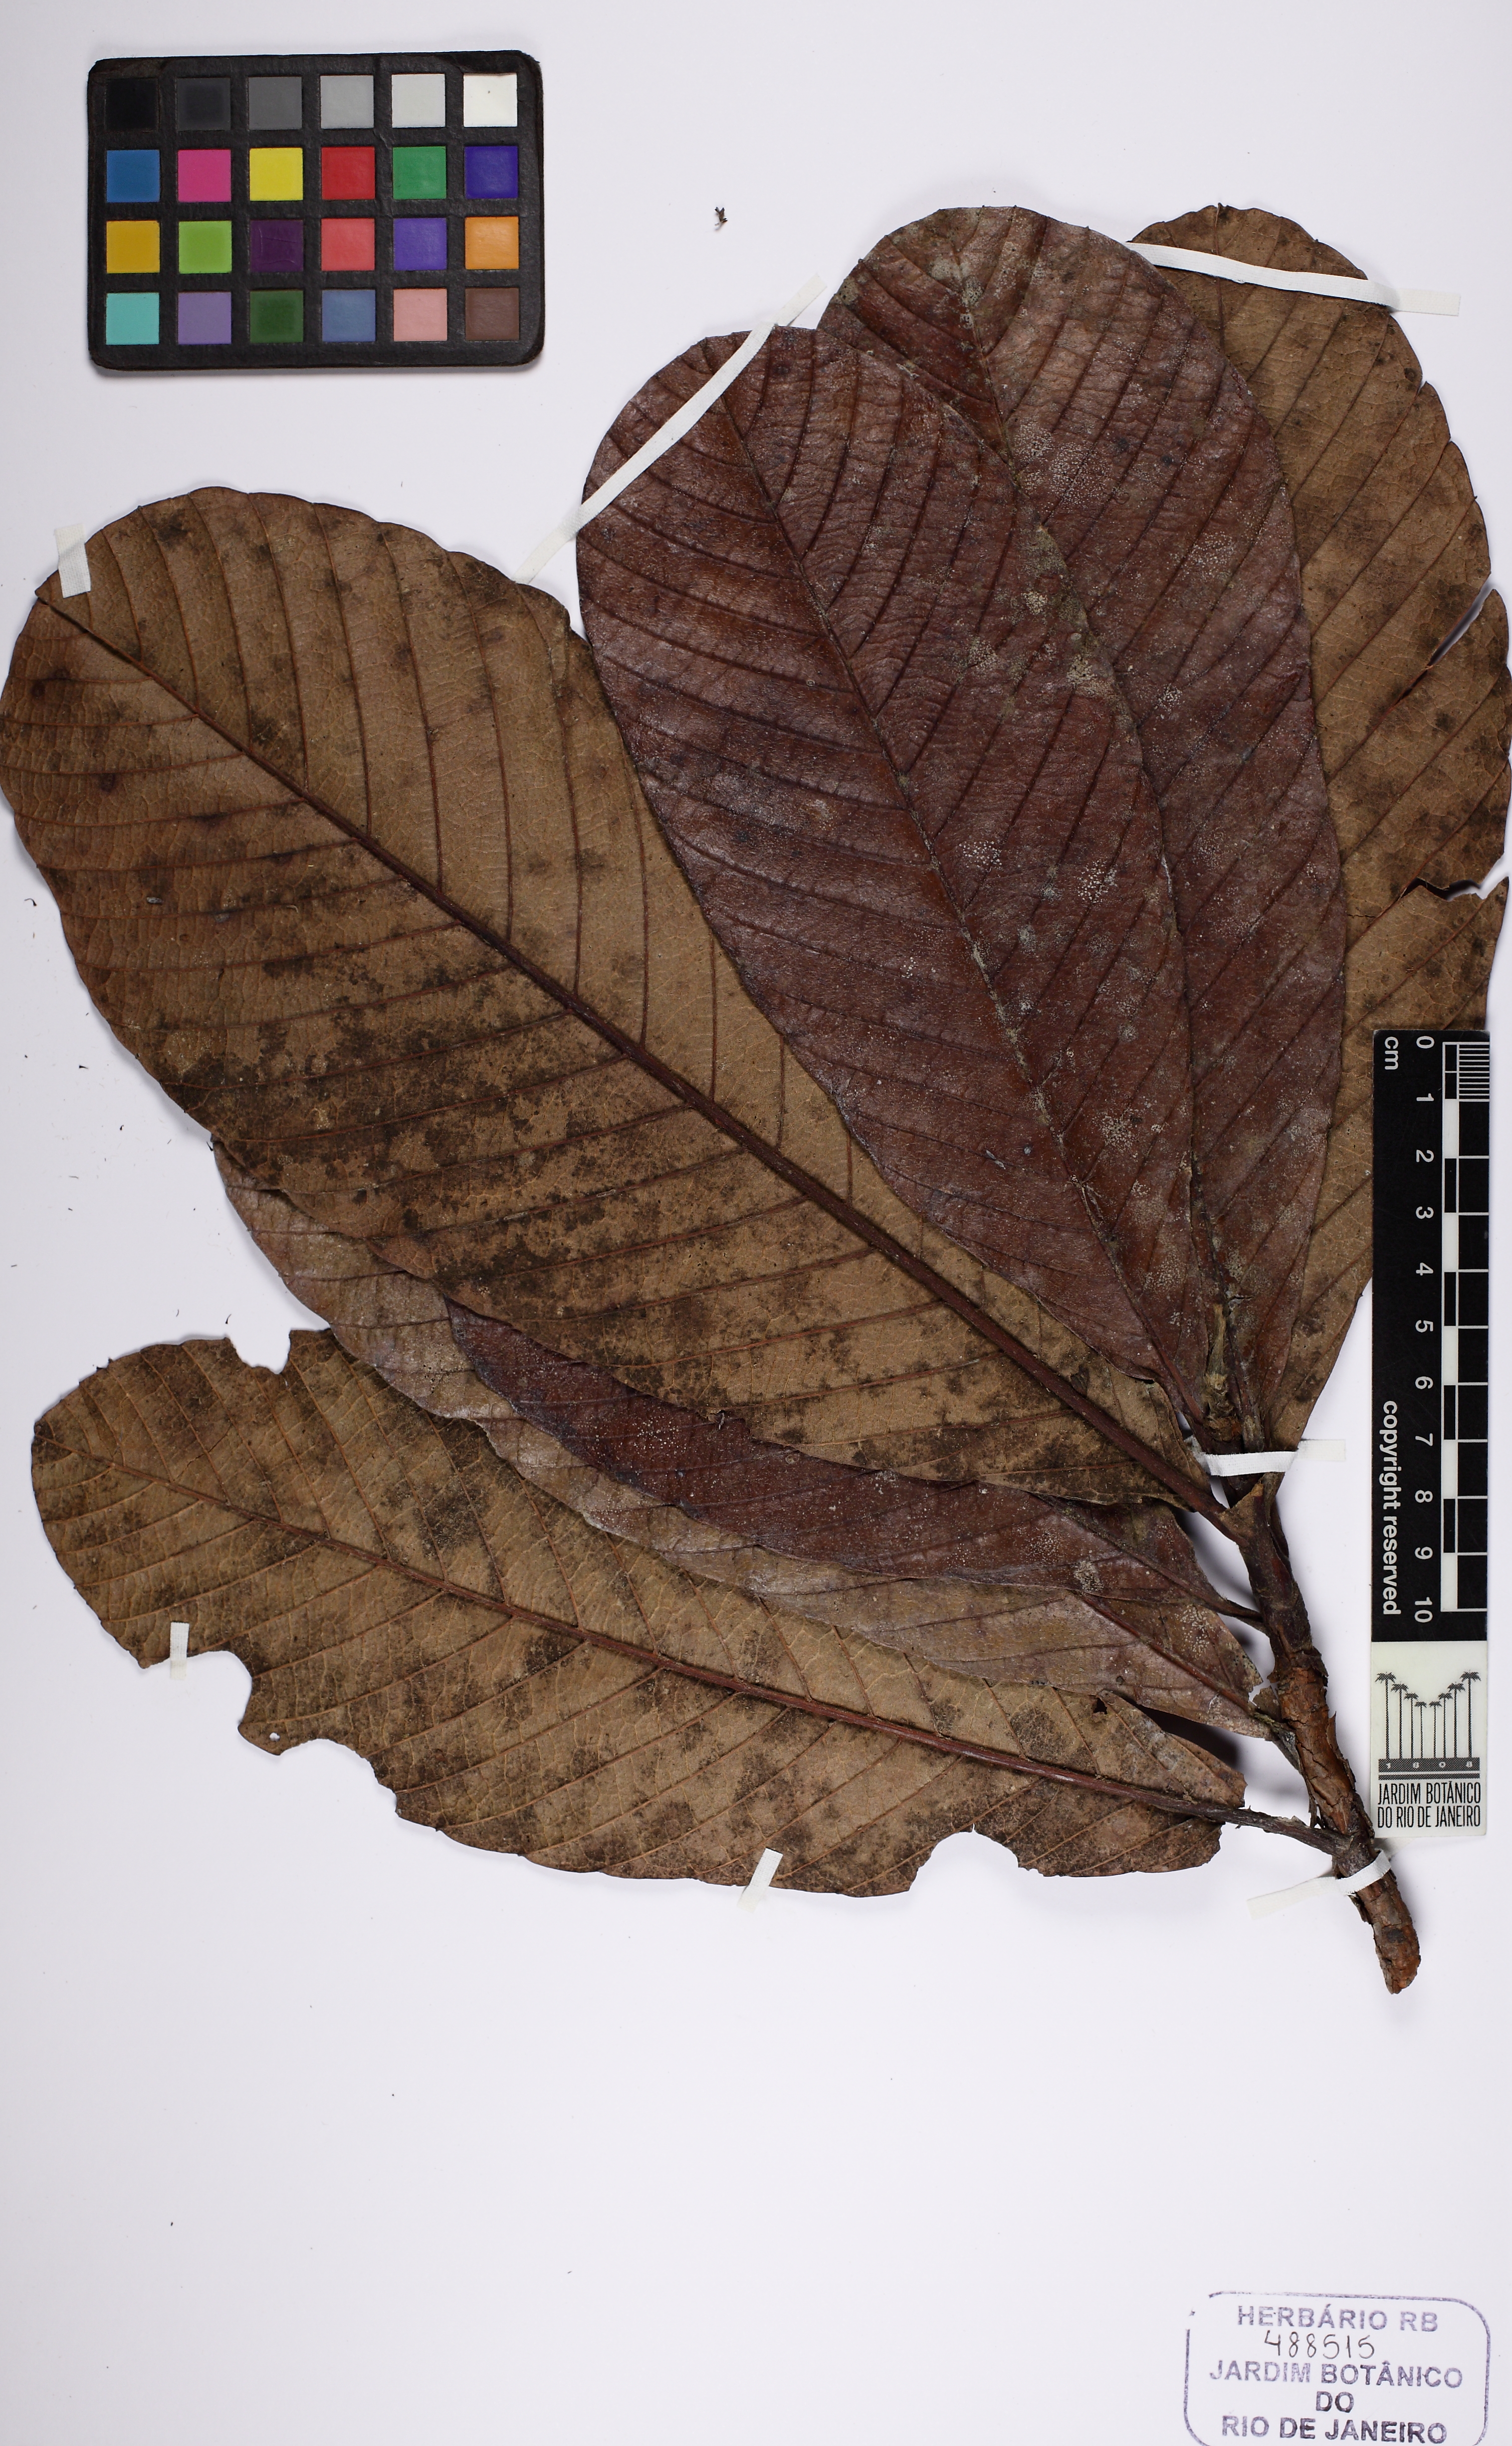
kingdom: Plantae
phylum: Tracheophyta
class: Magnoliopsida
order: Dilleniales
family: Dilleniaceae
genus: Tetracera
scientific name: Tetracera boomii
